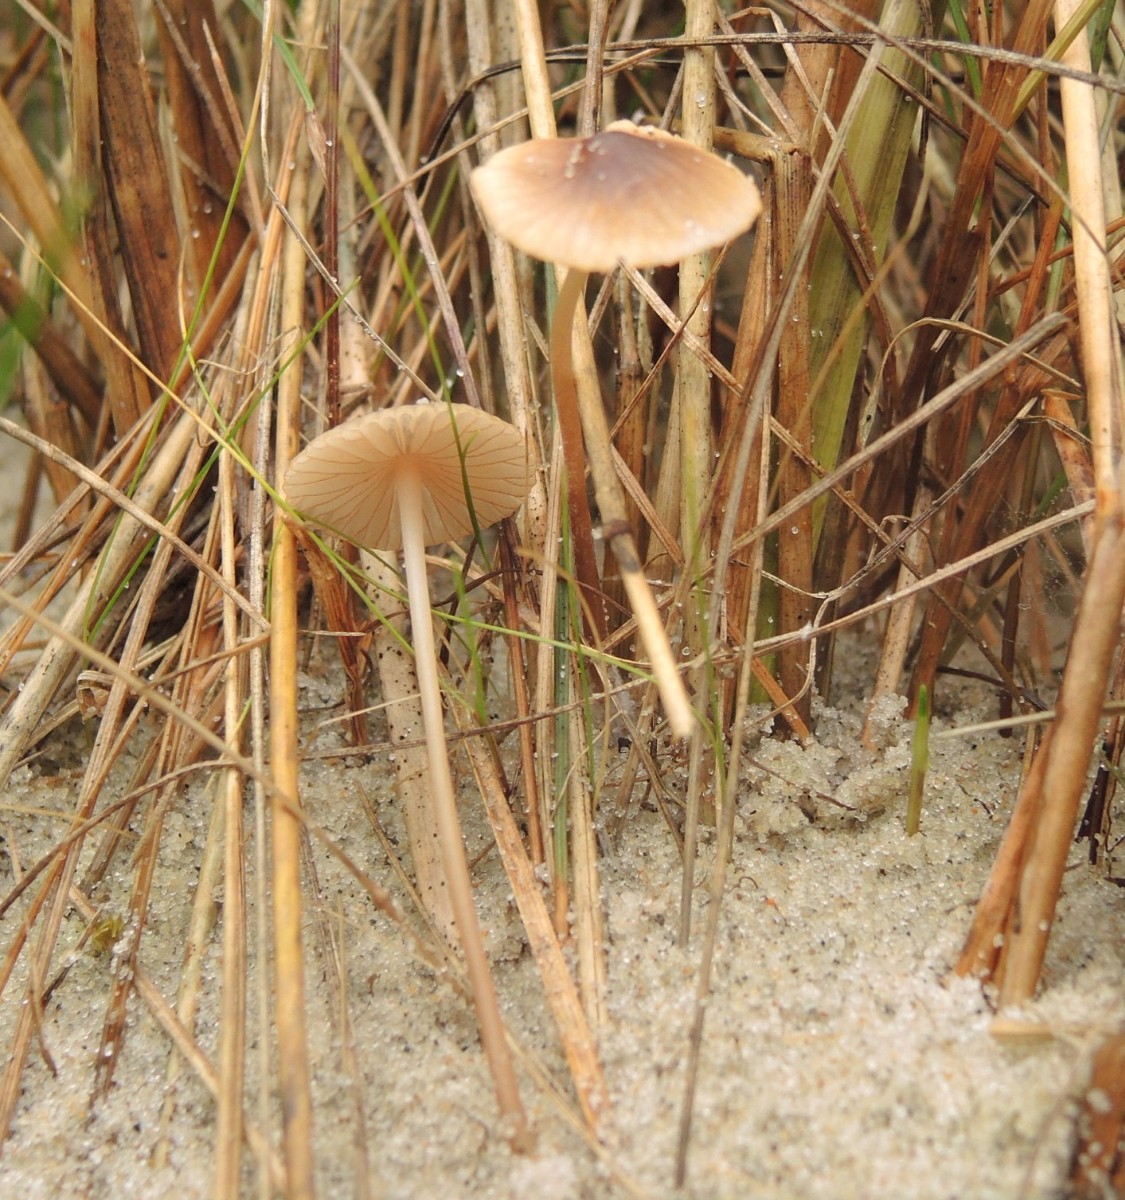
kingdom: Fungi
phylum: Basidiomycota
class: Agaricomycetes
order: Agaricales
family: Mycenaceae
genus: Mycena
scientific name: Mycena olivaceomarginata
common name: brunægget huesvamp
